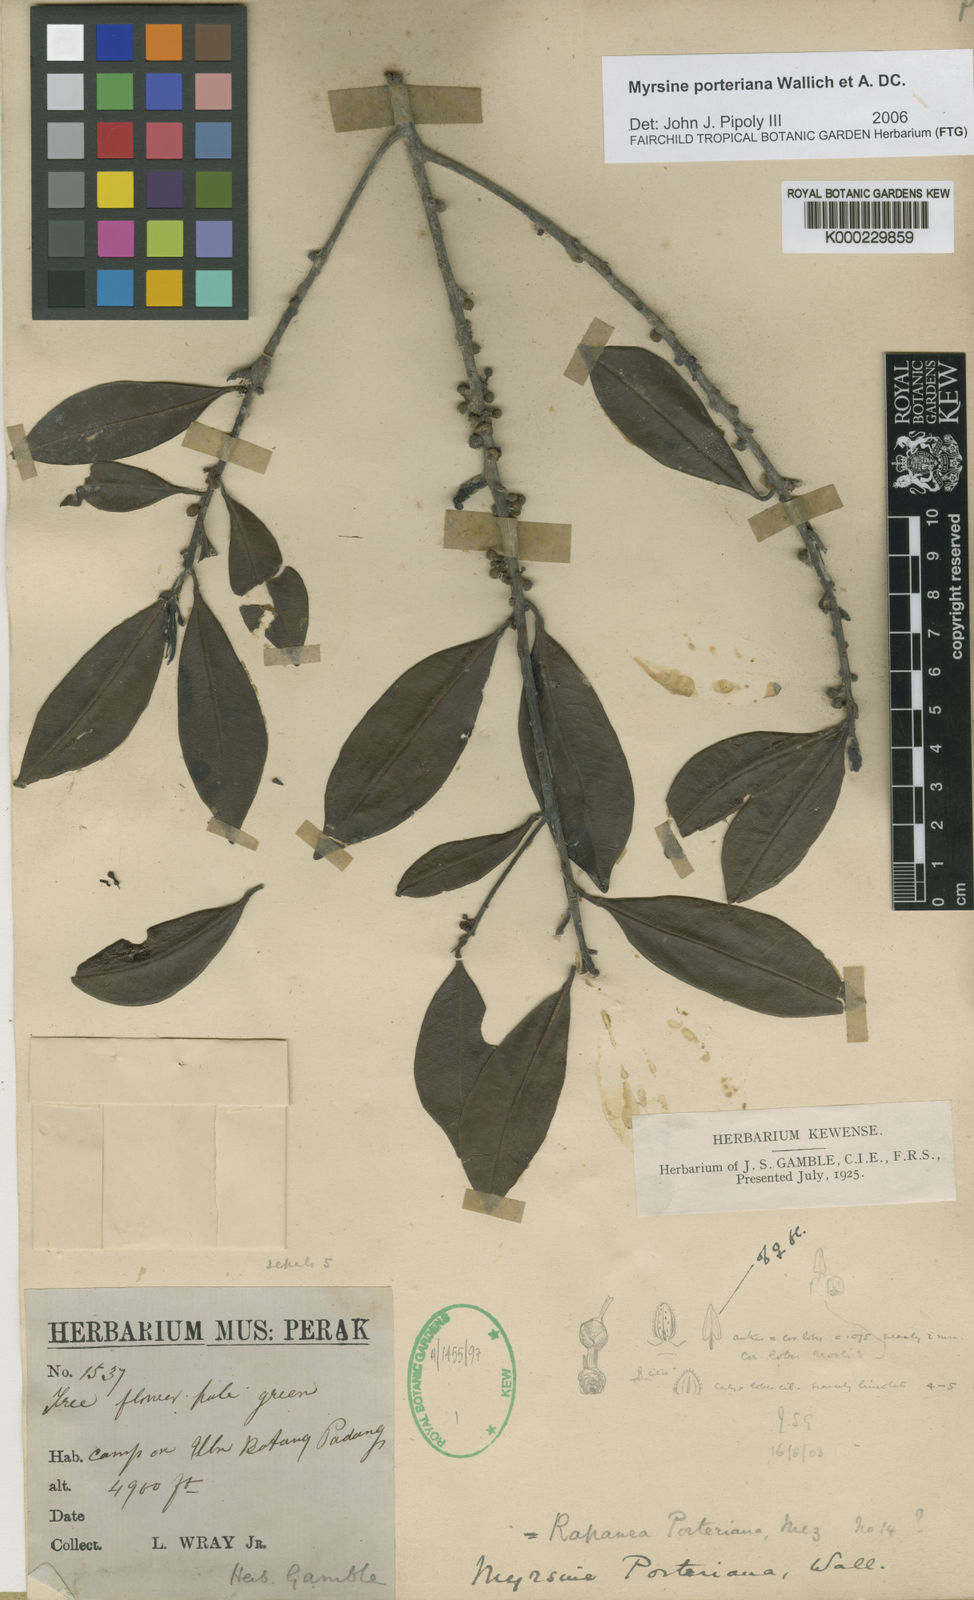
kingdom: Plantae
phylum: Tracheophyta
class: Magnoliopsida
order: Ericales
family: Primulaceae
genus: Myrsine
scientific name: Myrsine porteriana
